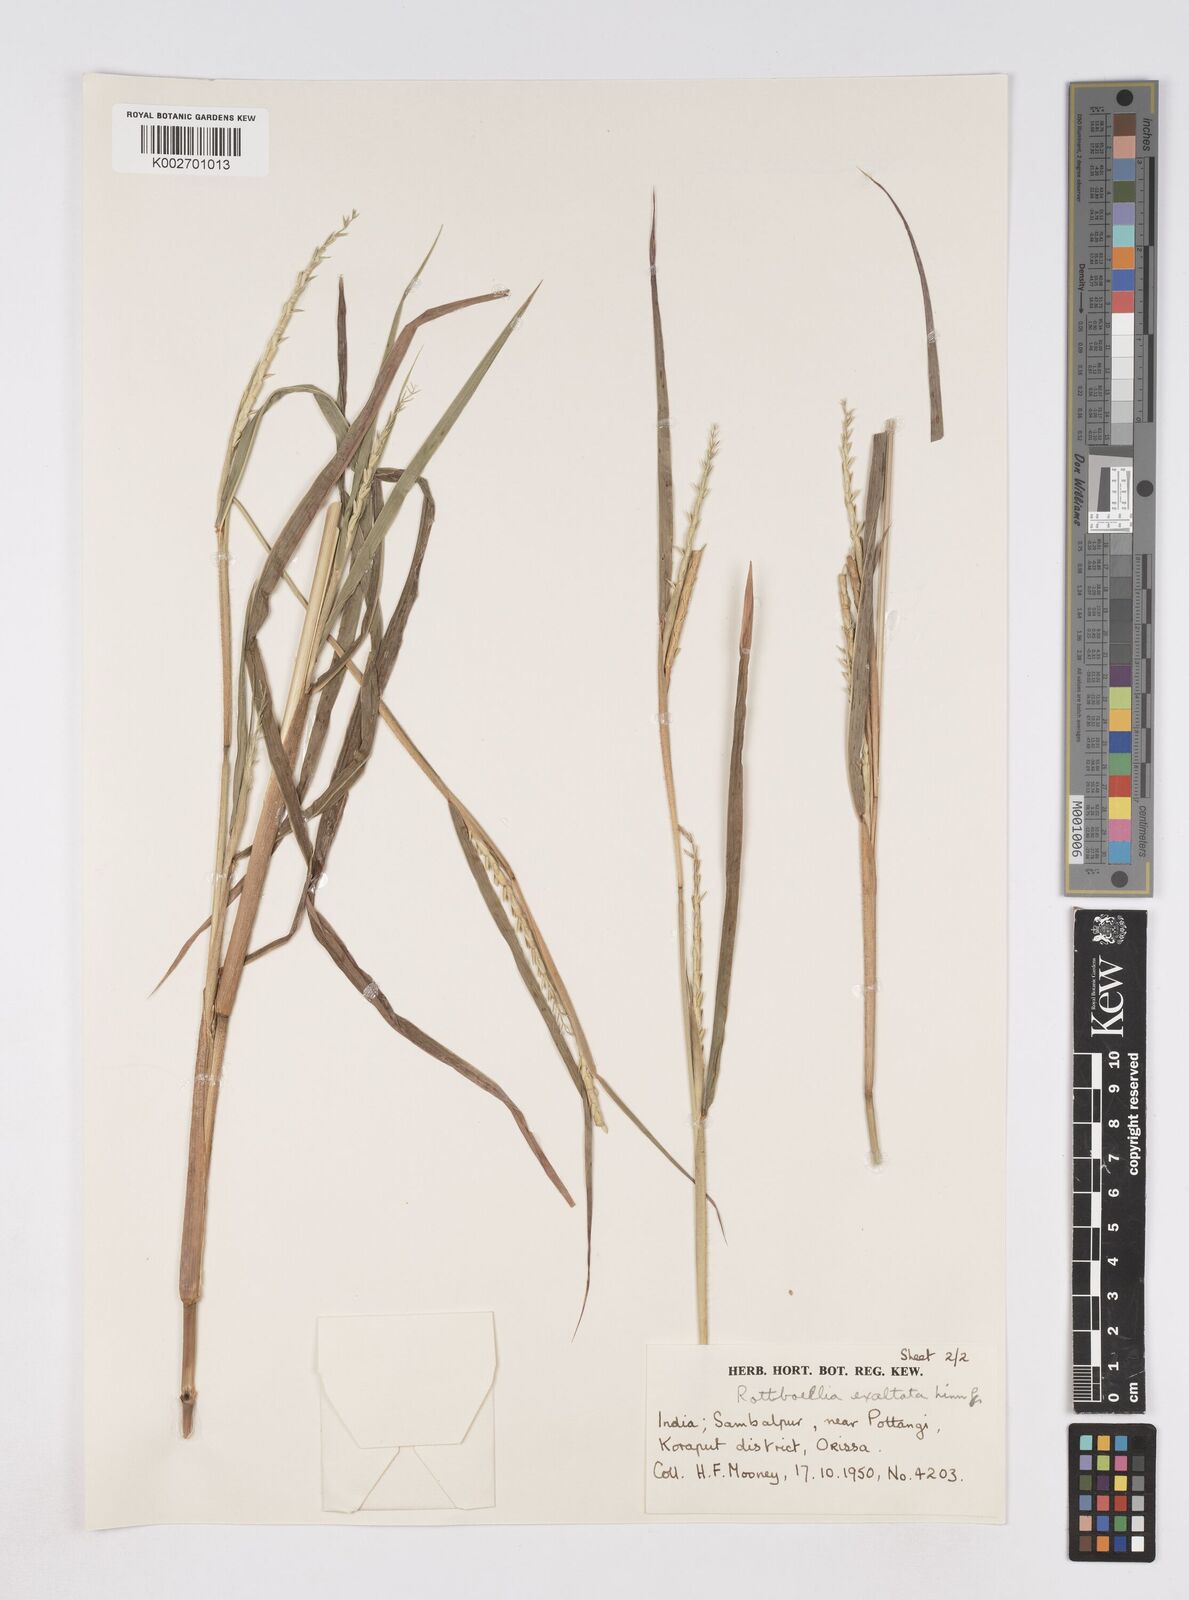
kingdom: Plantae
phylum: Tracheophyta
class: Liliopsida
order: Poales
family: Poaceae
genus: Ophiuros
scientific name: Ophiuros exaltatus
